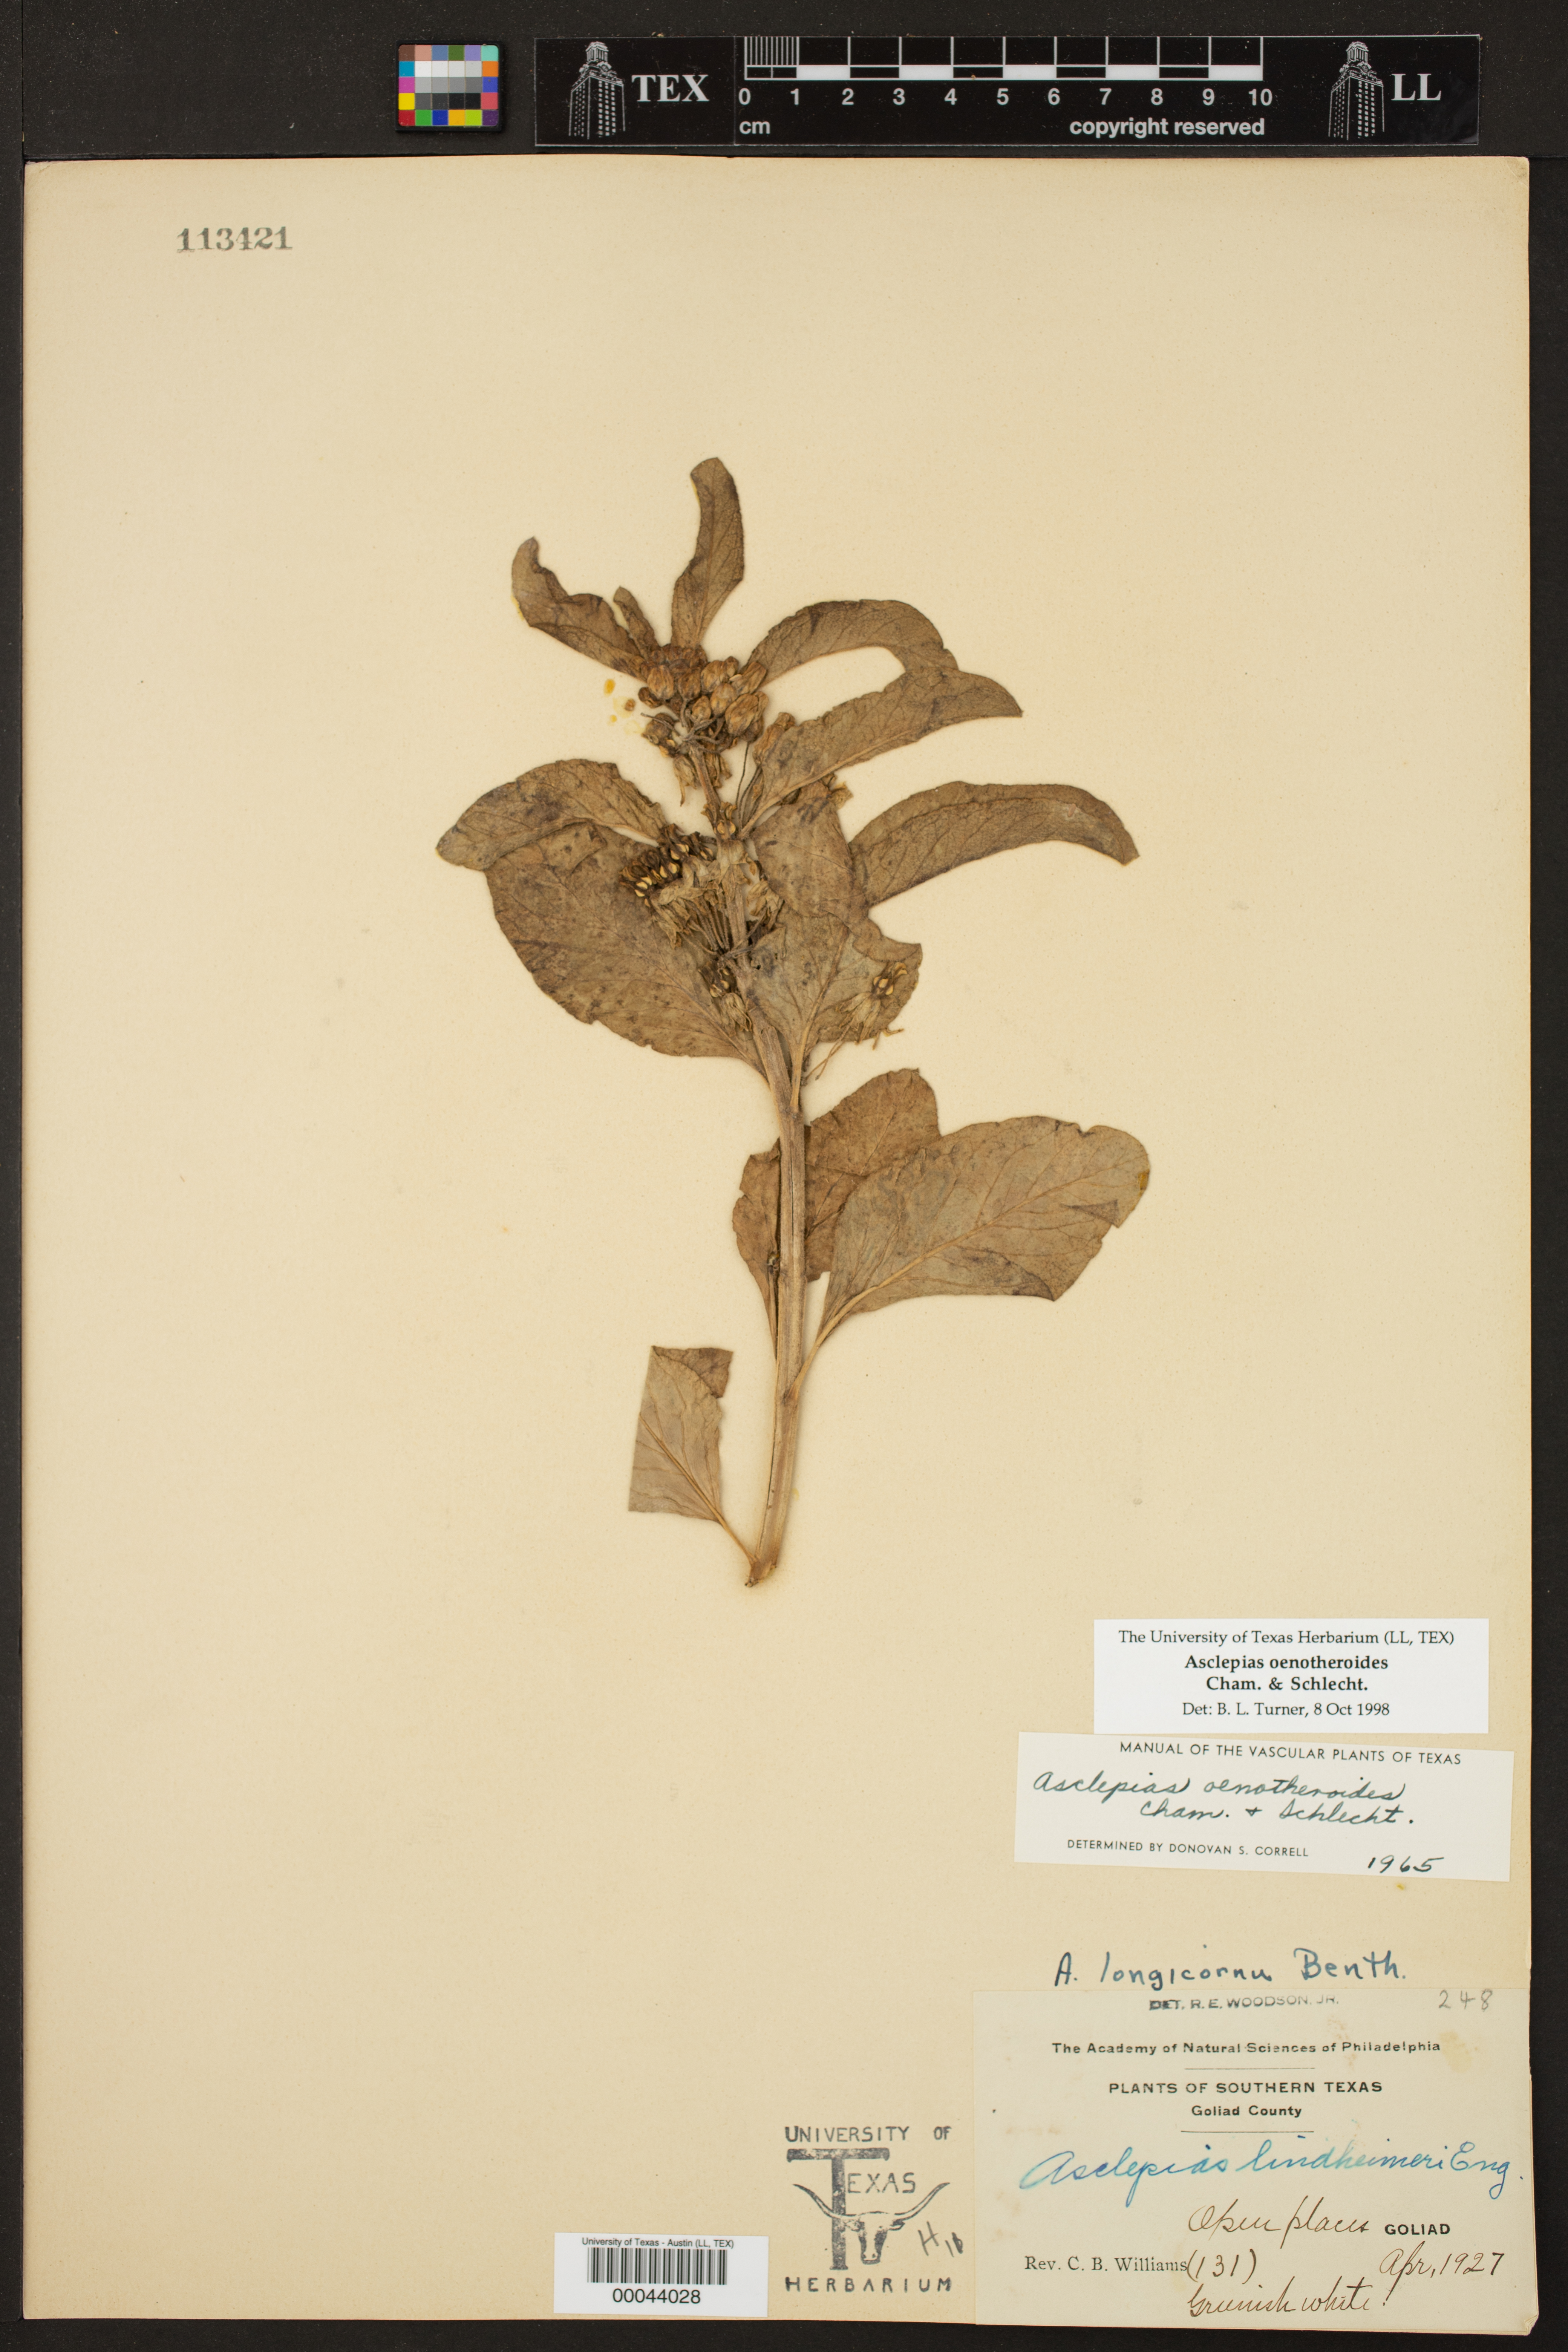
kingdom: Plantae
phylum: Tracheophyta
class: Magnoliopsida
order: Gentianales
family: Apocynaceae
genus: Asclepias
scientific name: Asclepias oenotheroides
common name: Zizotes milkweed
